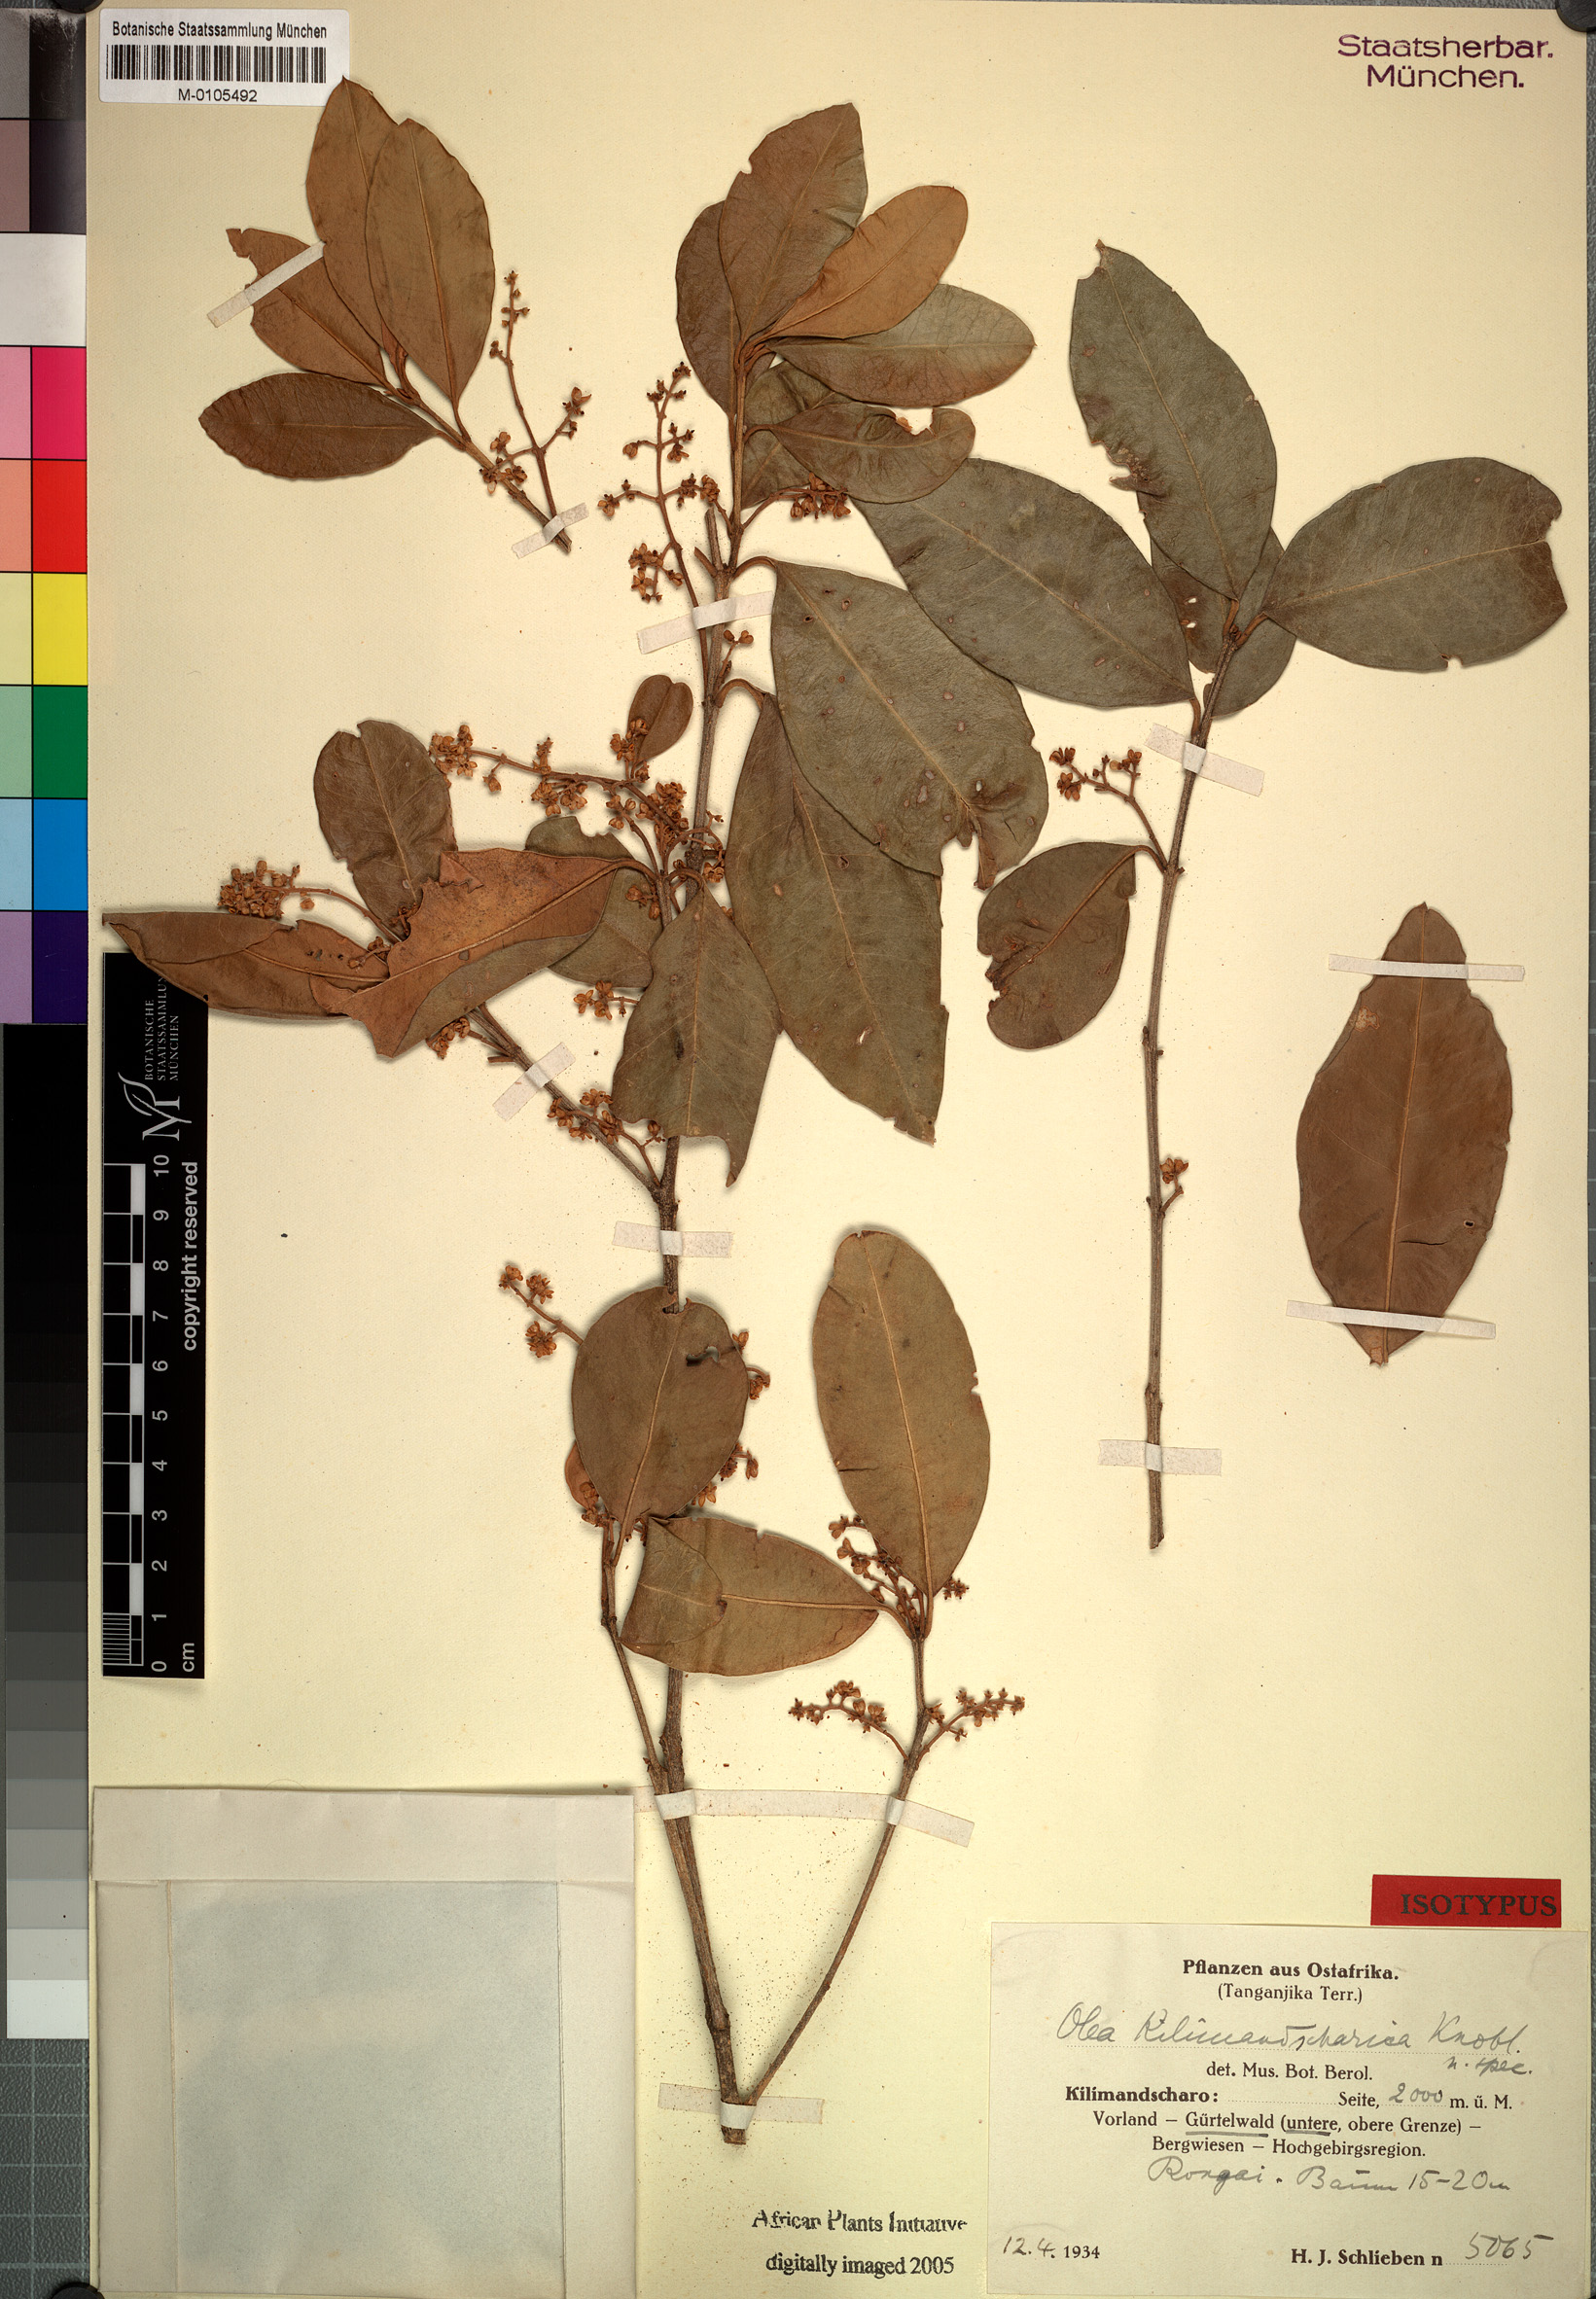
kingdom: Plantae
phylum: Tracheophyta
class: Magnoliopsida
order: Lamiales
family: Oleaceae
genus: Olea
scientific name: Olea europaea
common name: Olive
